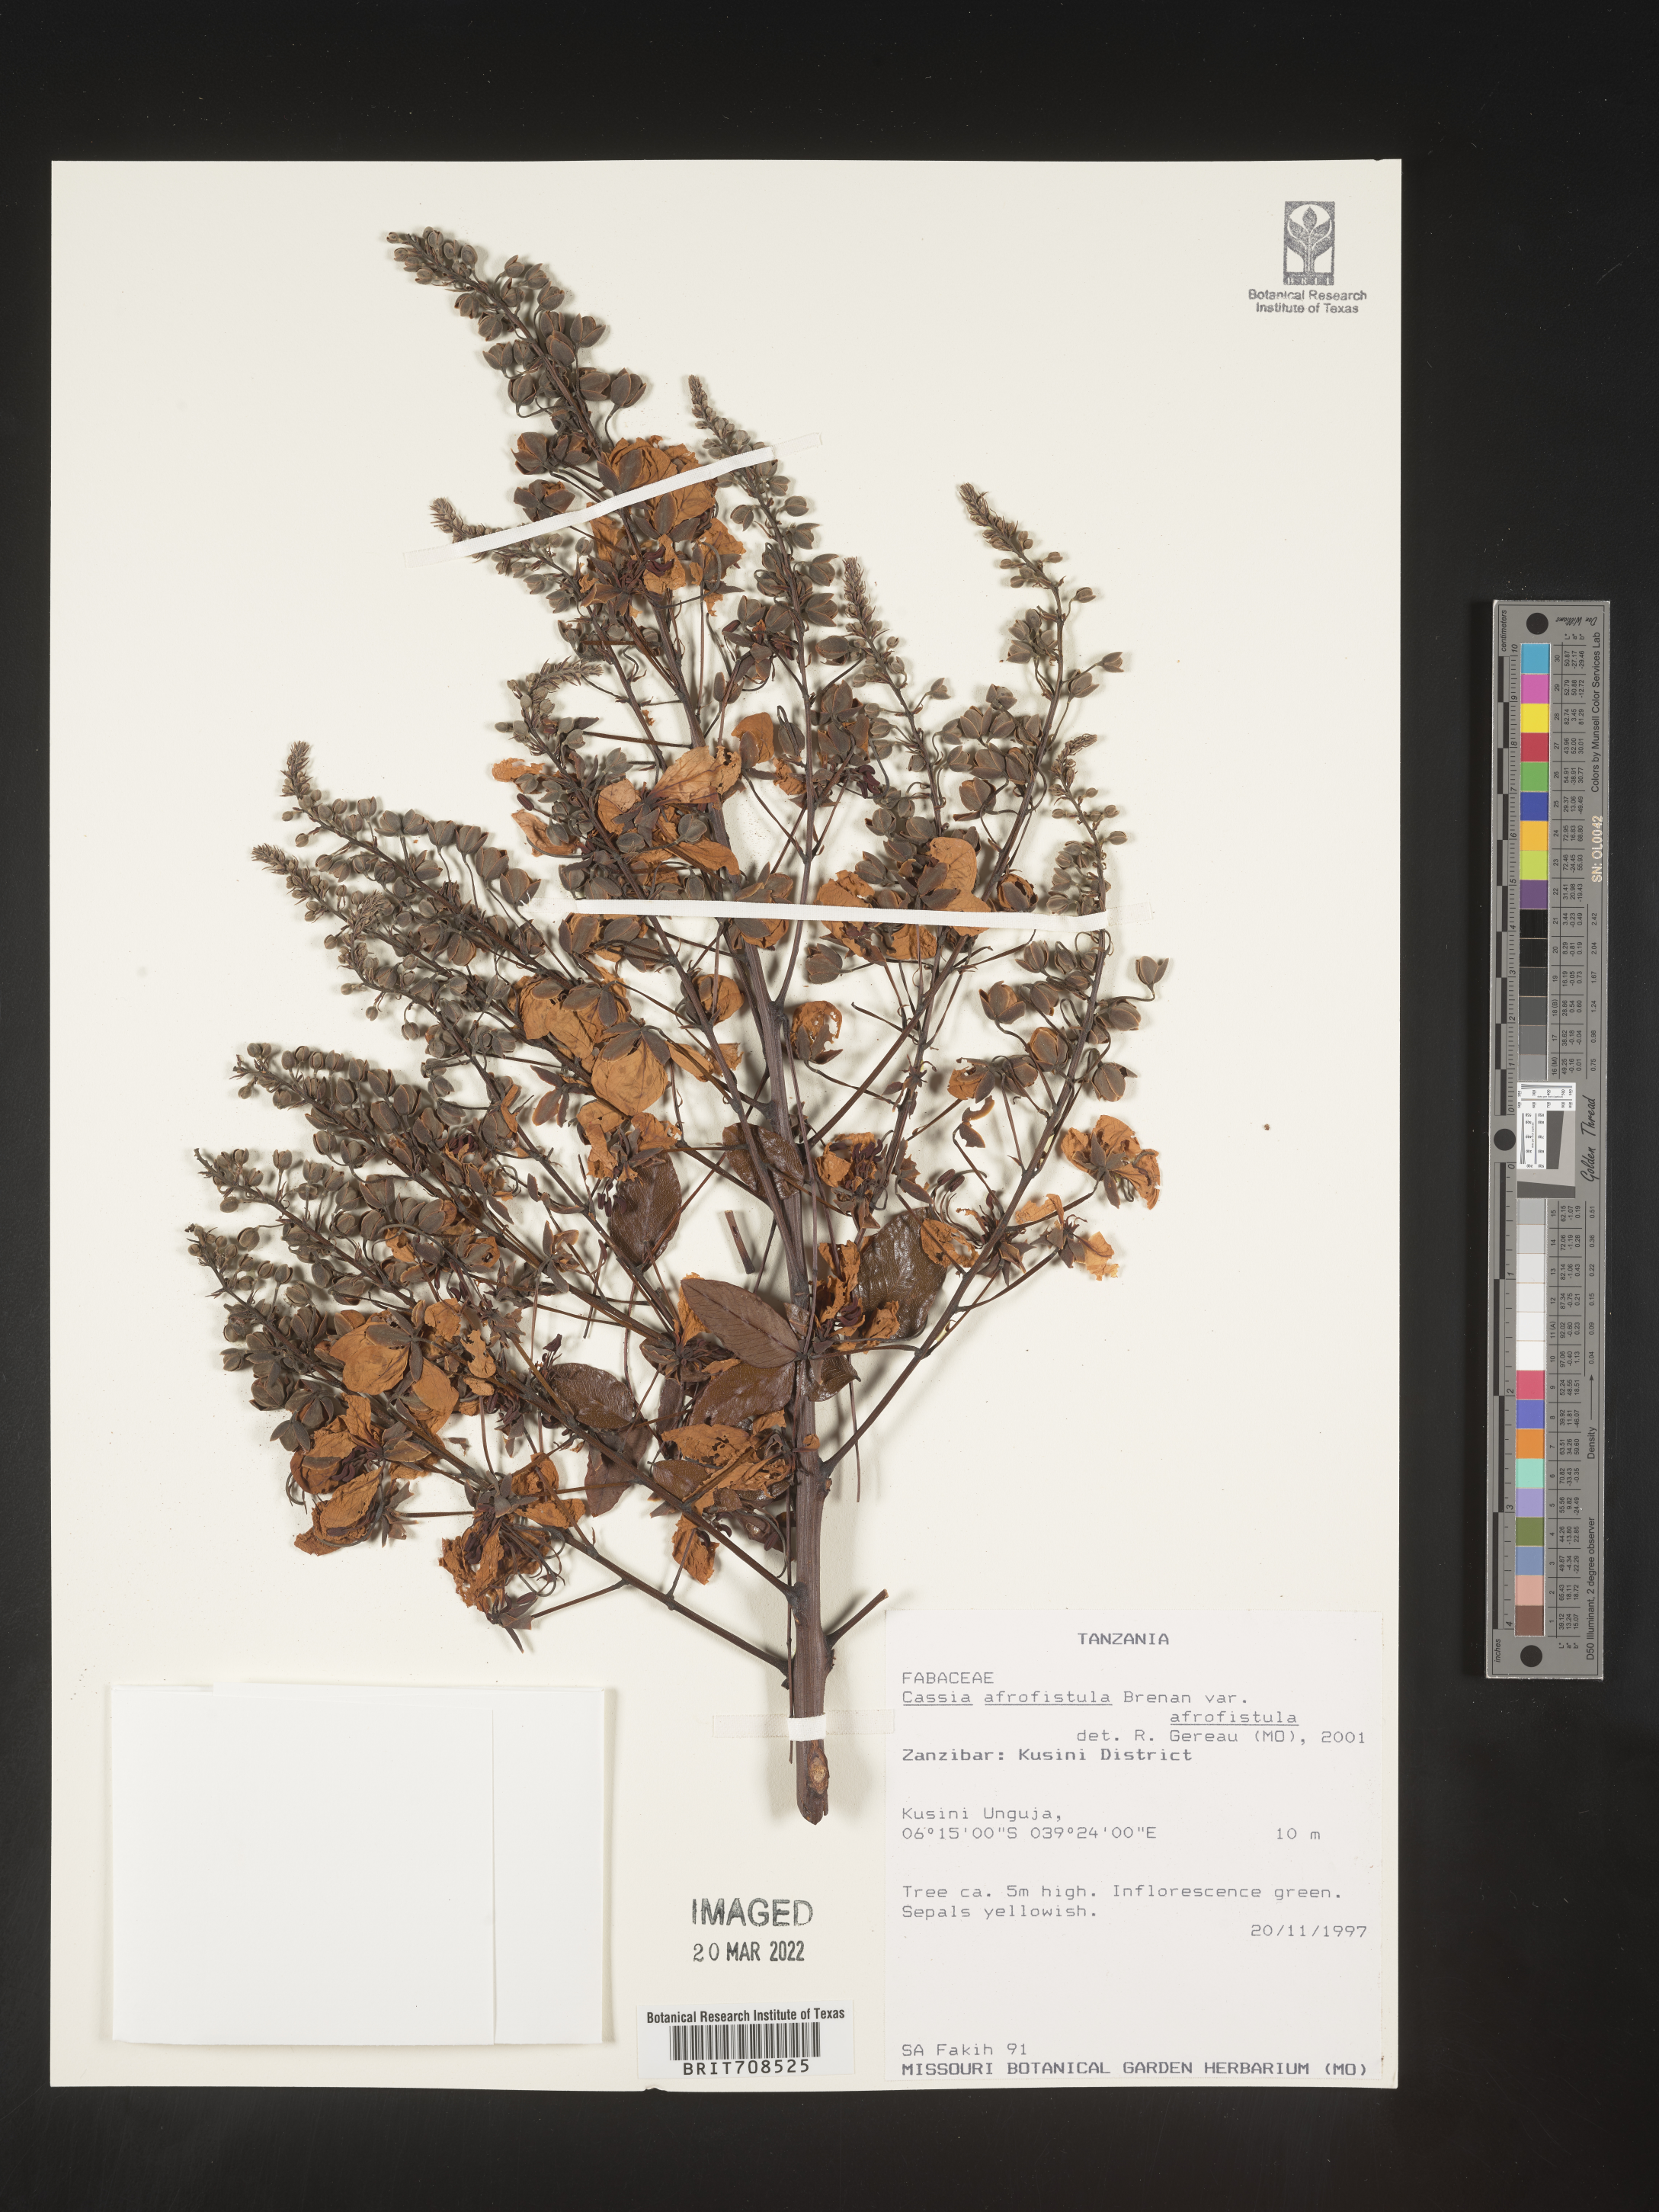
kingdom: Plantae
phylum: Tracheophyta
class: Magnoliopsida
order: Fabales
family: Fabaceae
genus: Cassia
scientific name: Cassia
